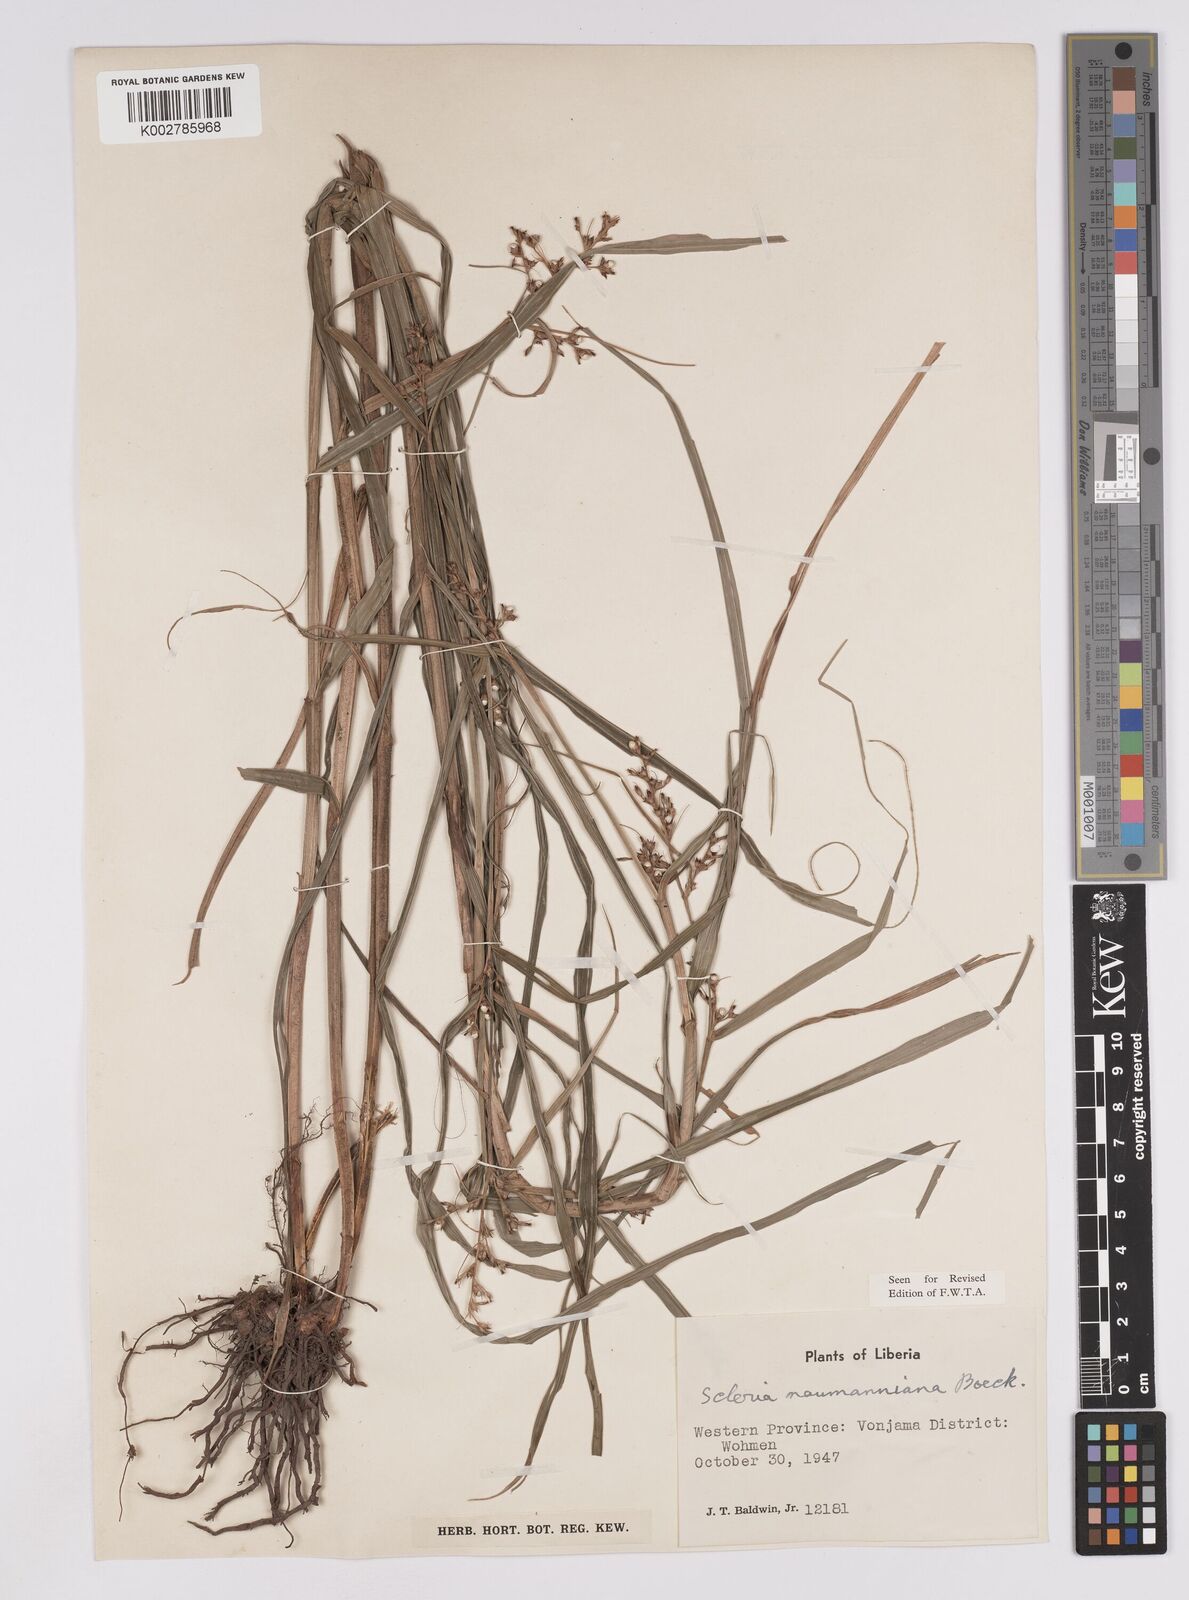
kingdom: Plantae
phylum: Tracheophyta
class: Liliopsida
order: Poales
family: Cyperaceae
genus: Scleria
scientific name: Scleria naumanniana
